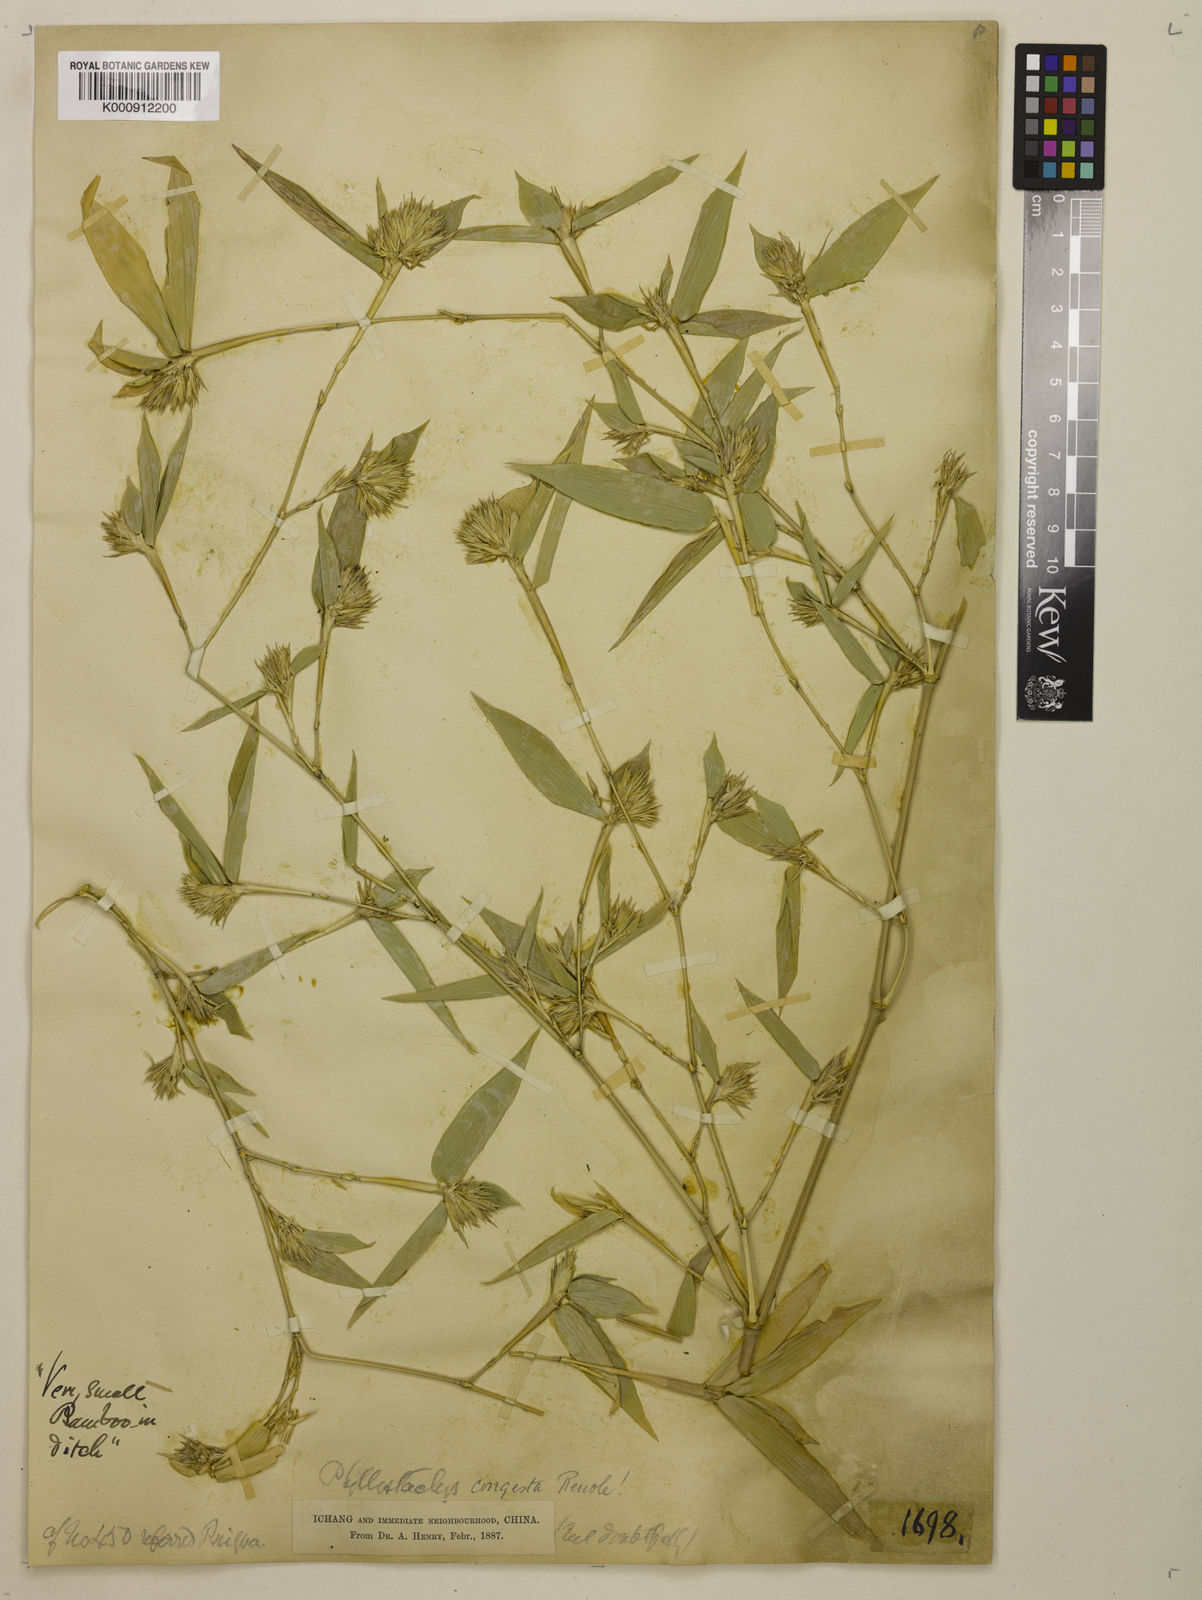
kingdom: Plantae
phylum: Tracheophyta
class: Liliopsida
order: Poales
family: Poaceae
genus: Phyllostachys
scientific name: Phyllostachys heteroclada
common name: Fishscale bamboo
